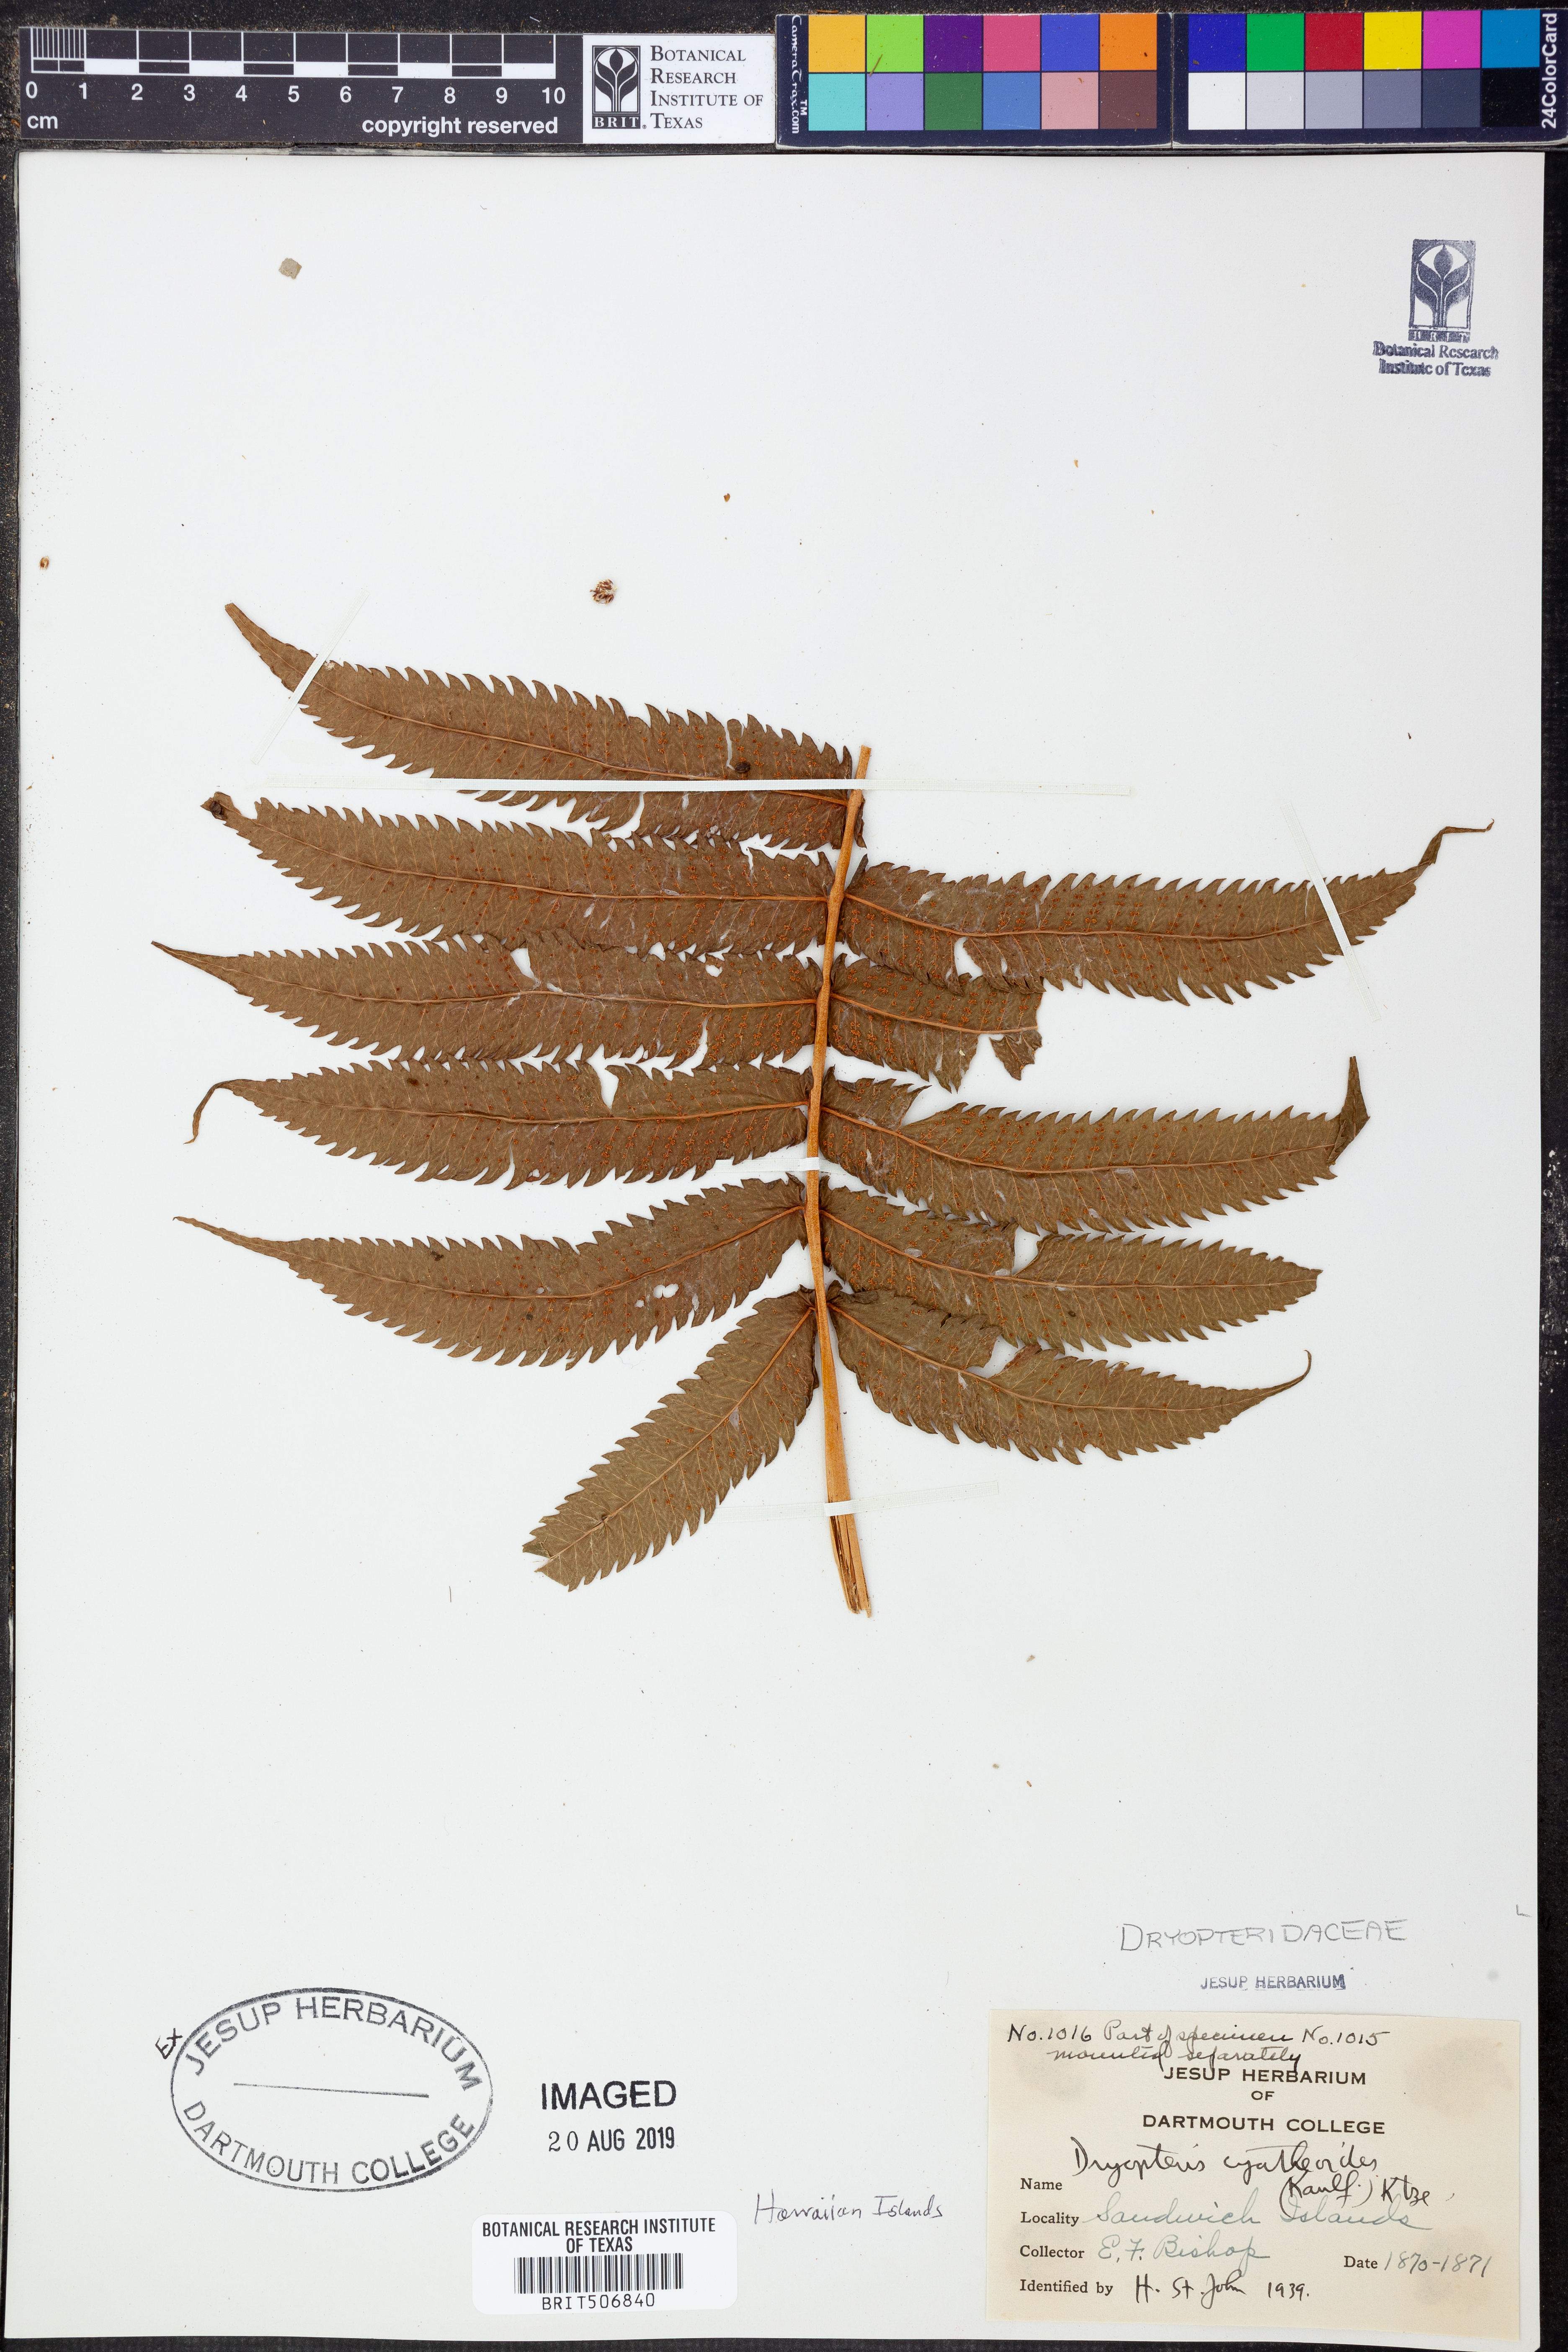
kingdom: Plantae
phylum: Tracheophyta
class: Polypodiopsida
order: Polypodiales
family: Thelypteridaceae
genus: Menisciopsis
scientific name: Menisciopsis cyatheoides
